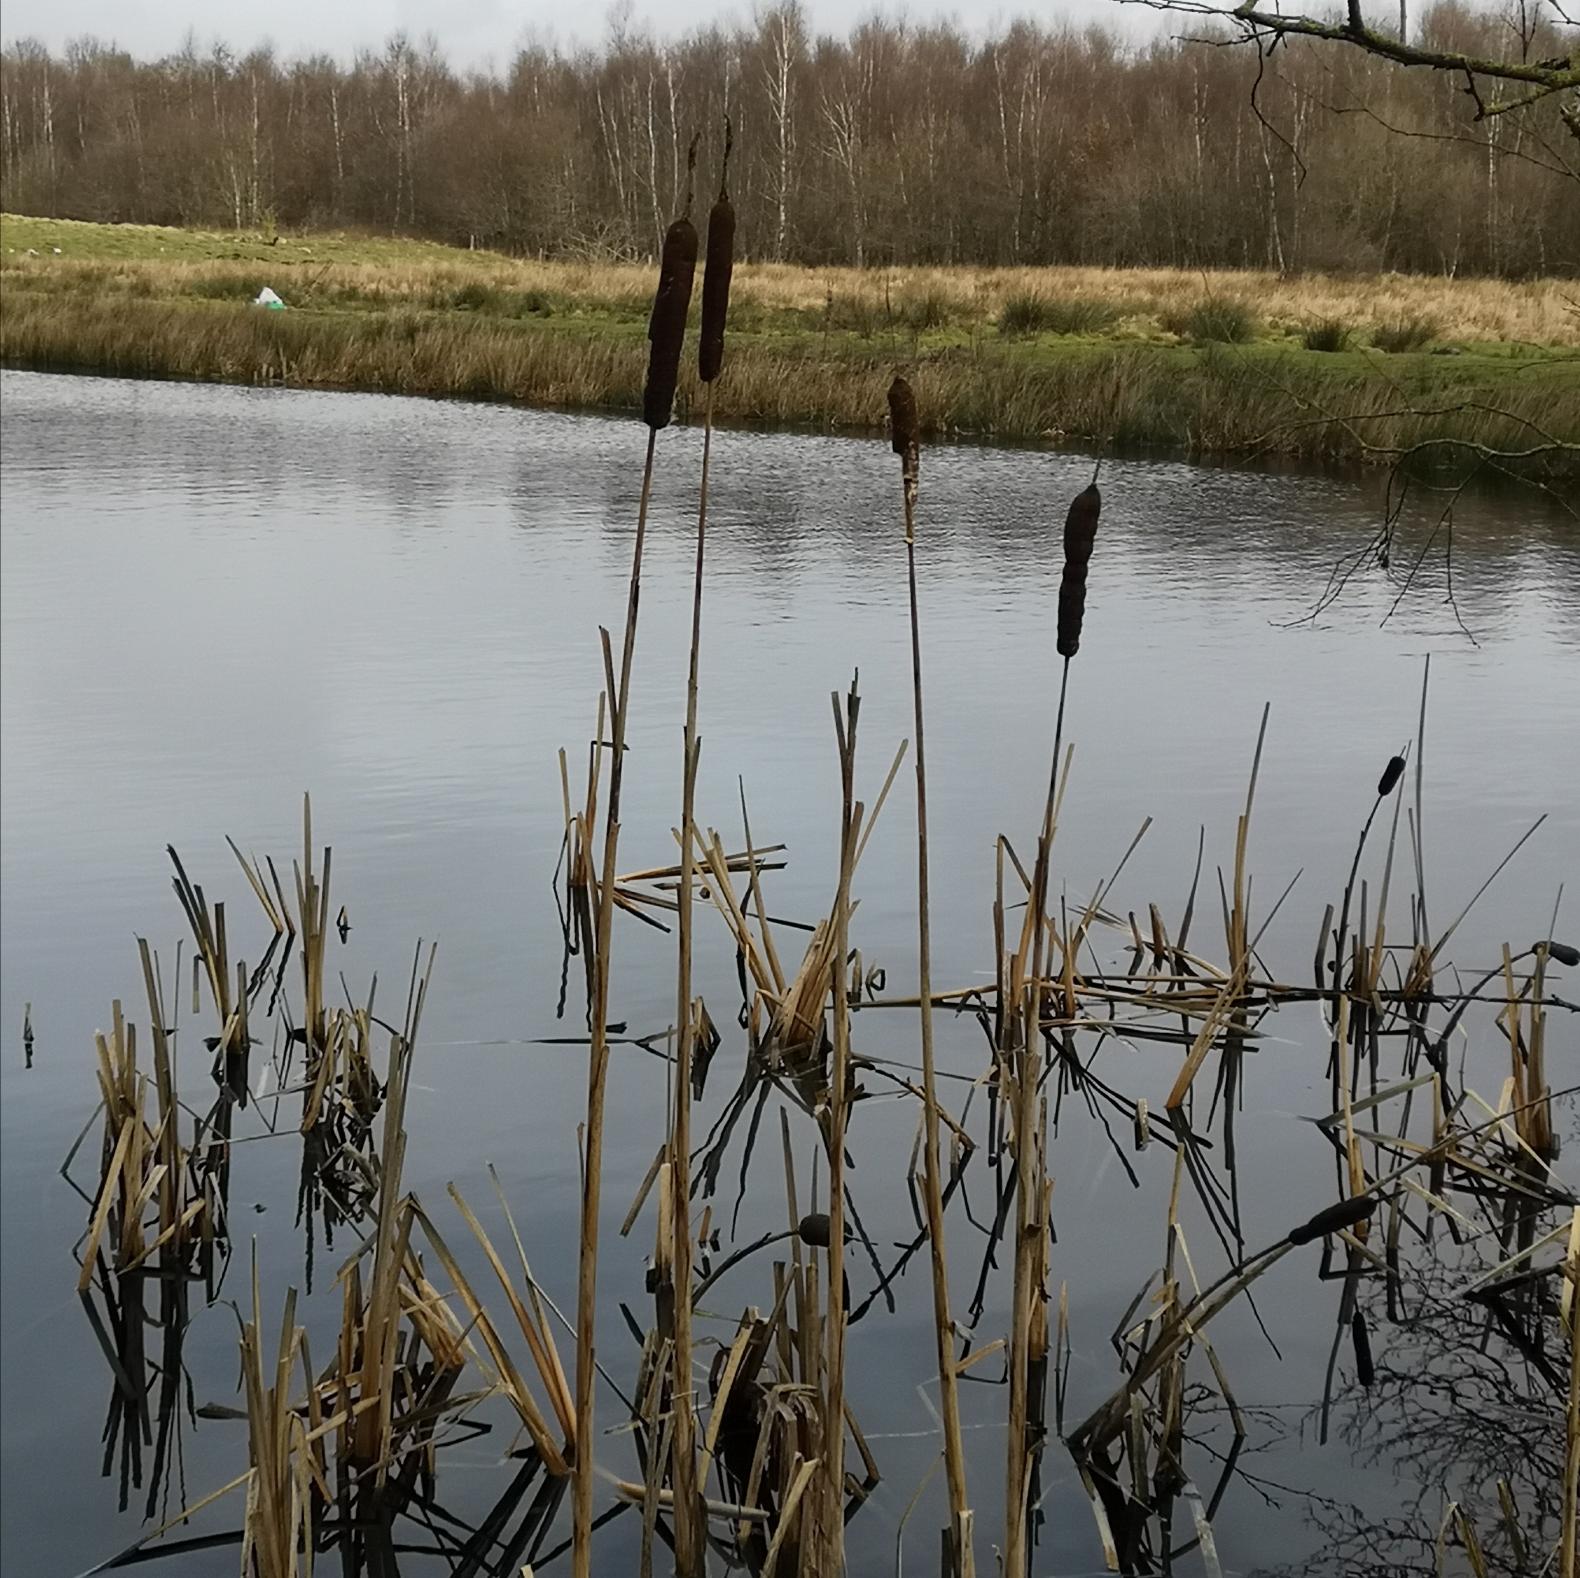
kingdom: Plantae
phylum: Tracheophyta
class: Liliopsida
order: Poales
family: Typhaceae
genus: Typha
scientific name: Typha latifolia
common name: Bredbladet dunhammer
